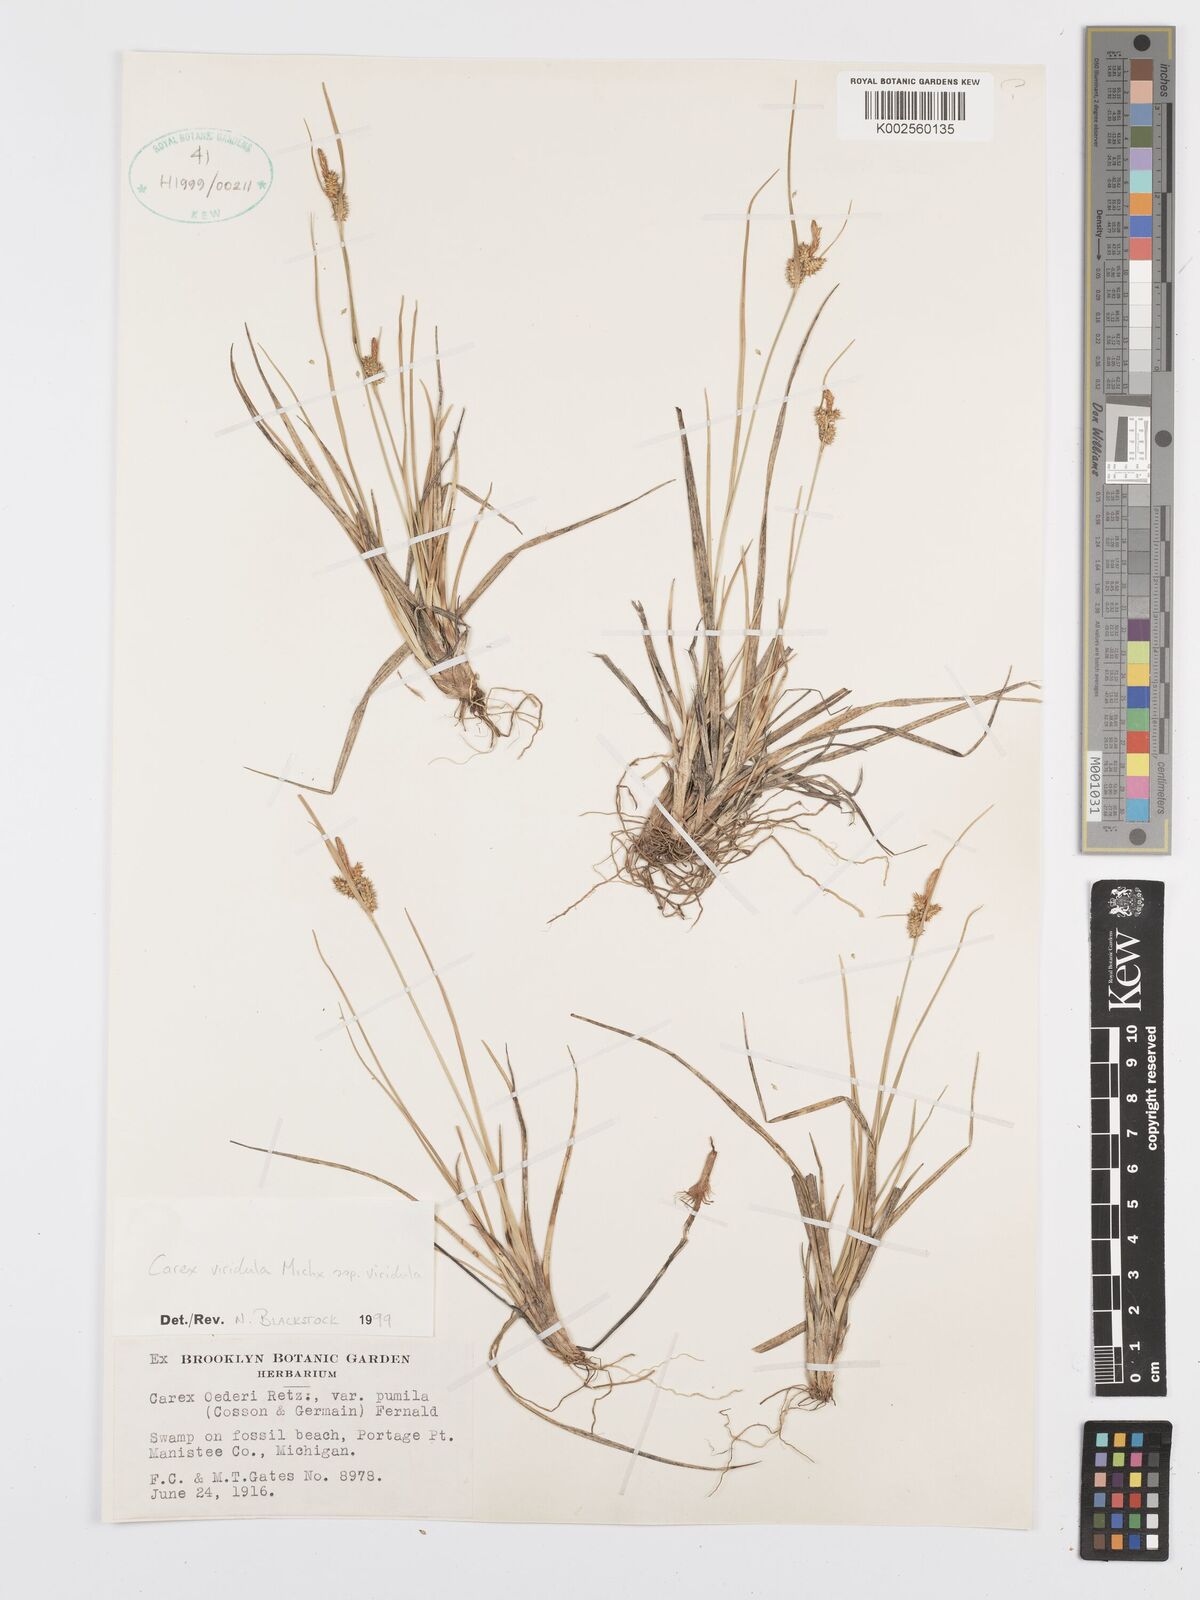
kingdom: Plantae
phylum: Tracheophyta
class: Liliopsida
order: Poales
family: Cyperaceae
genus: Carex
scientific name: Carex oederi
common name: Common & small-fruited yellow-sedge
